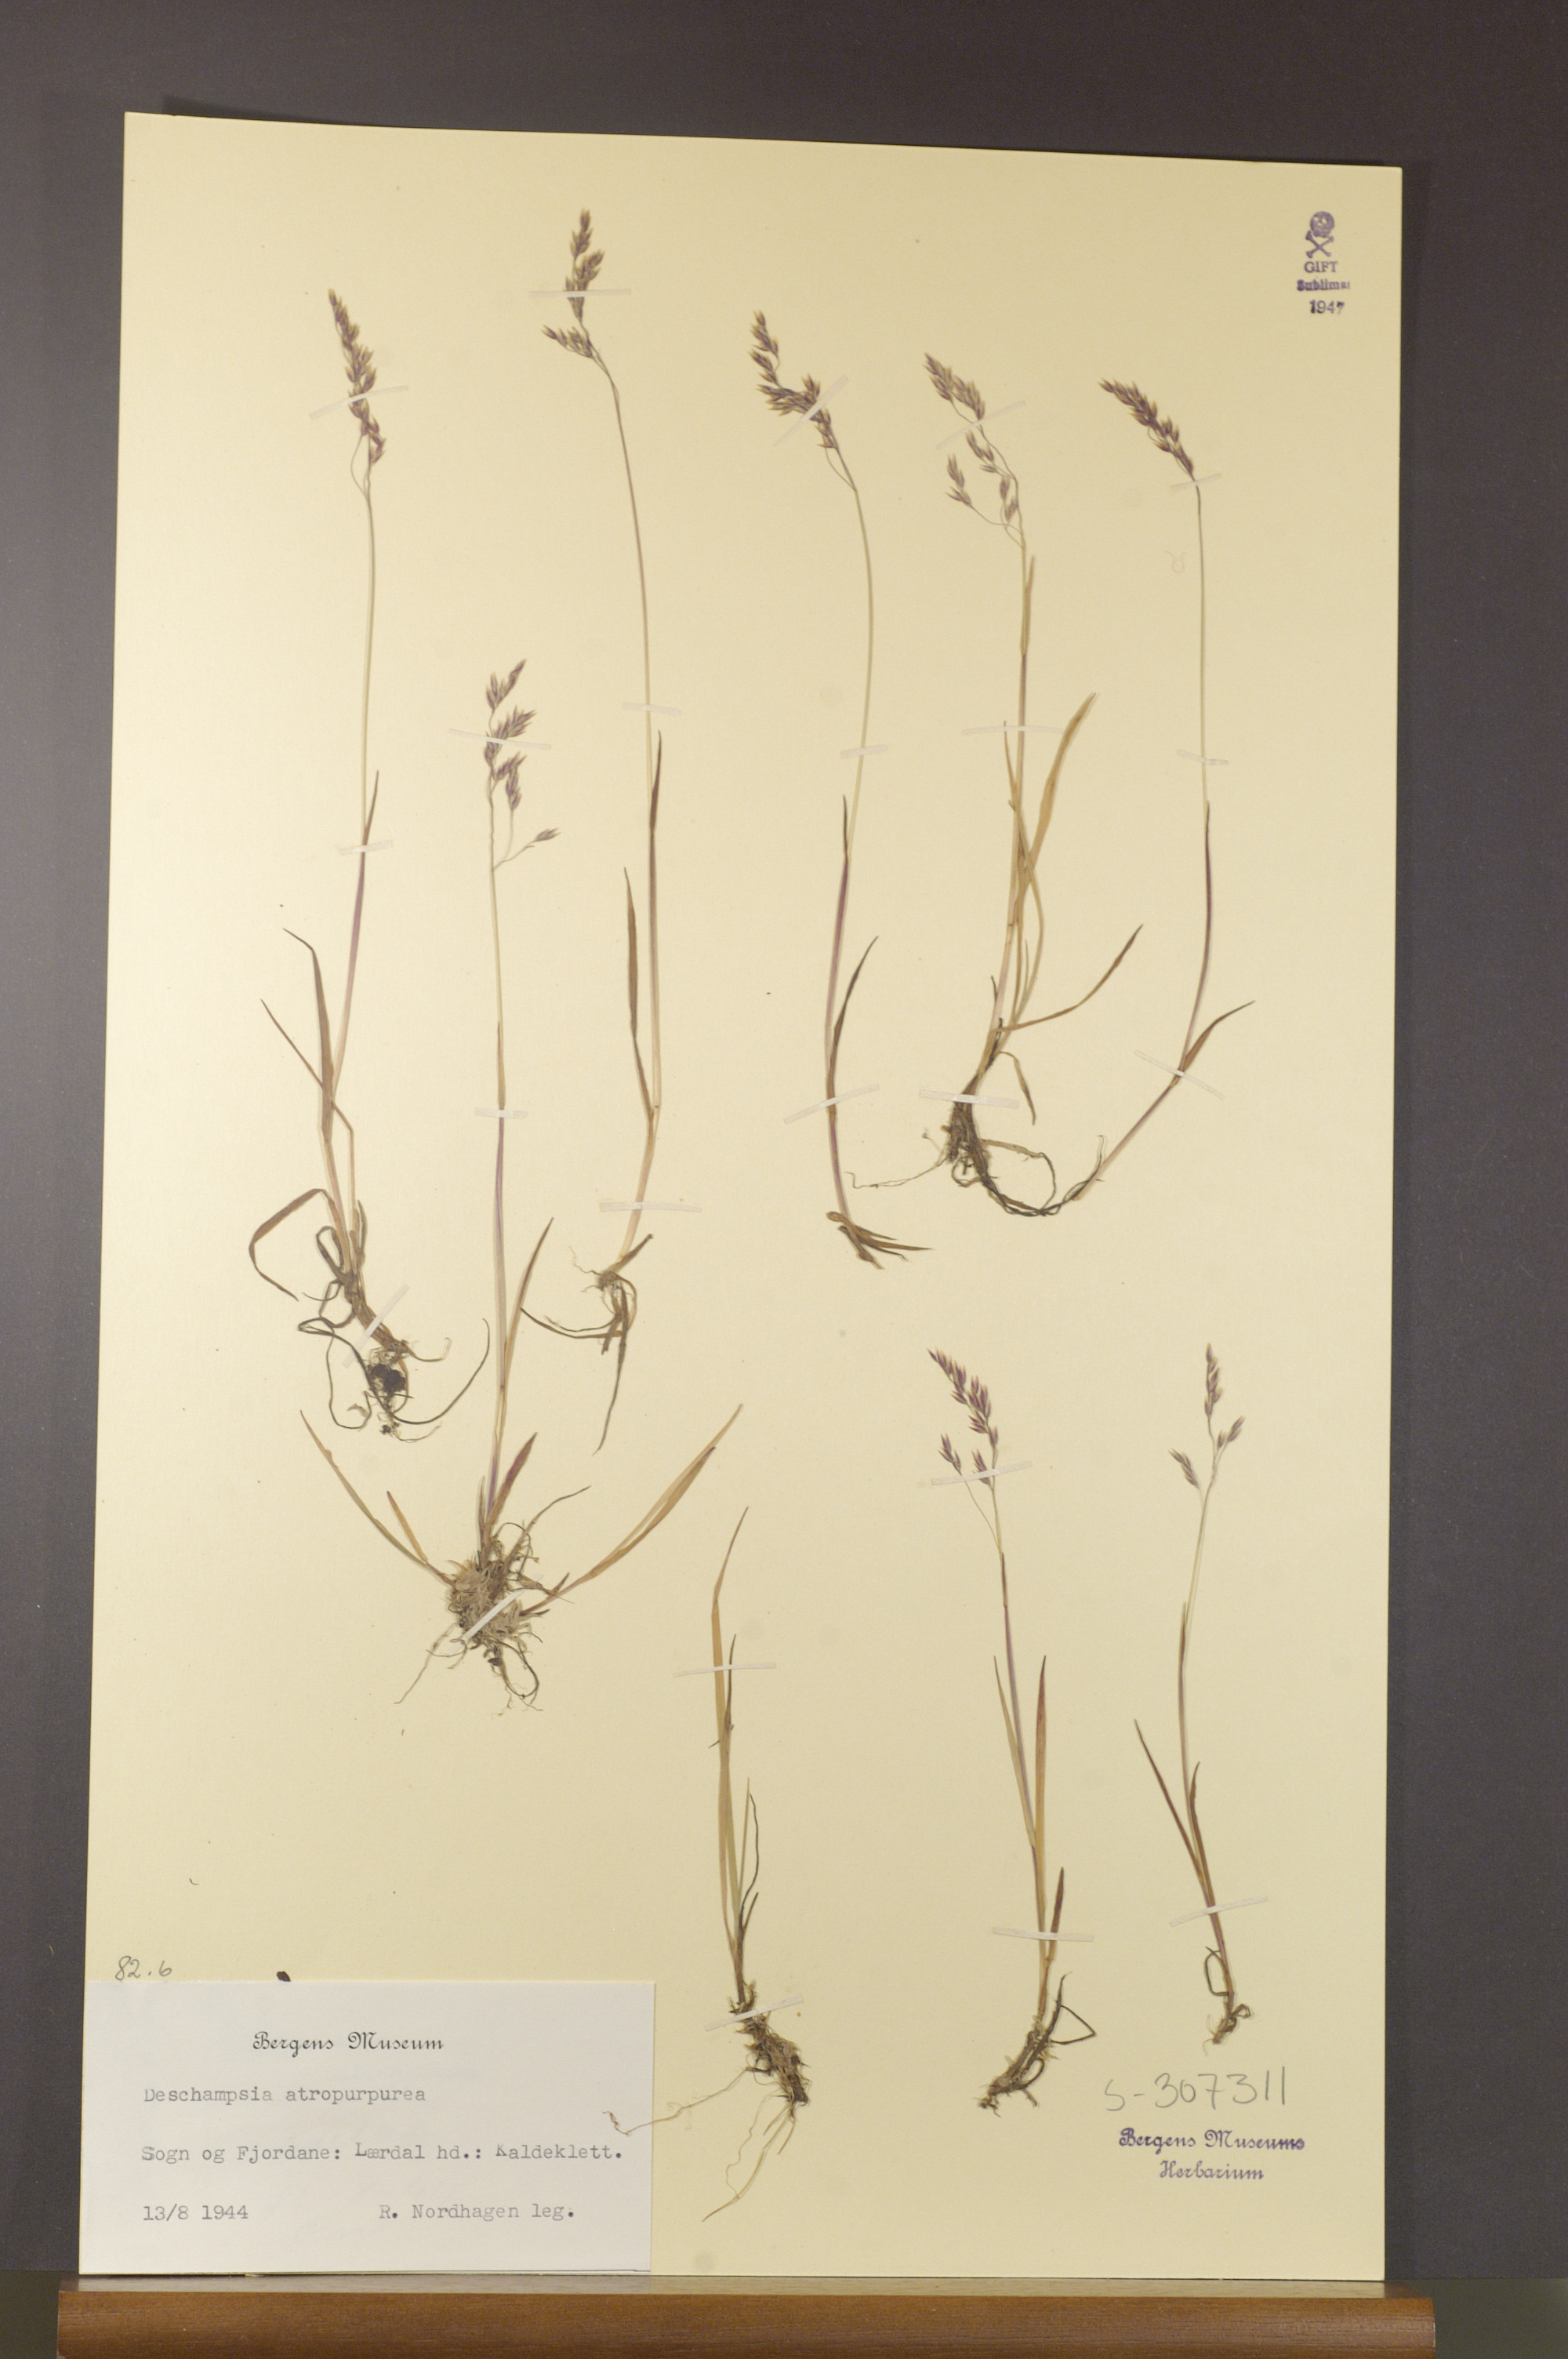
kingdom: Plantae
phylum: Tracheophyta
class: Liliopsida
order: Poales
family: Poaceae
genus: Vahlodea
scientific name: Vahlodea atropurpurea
